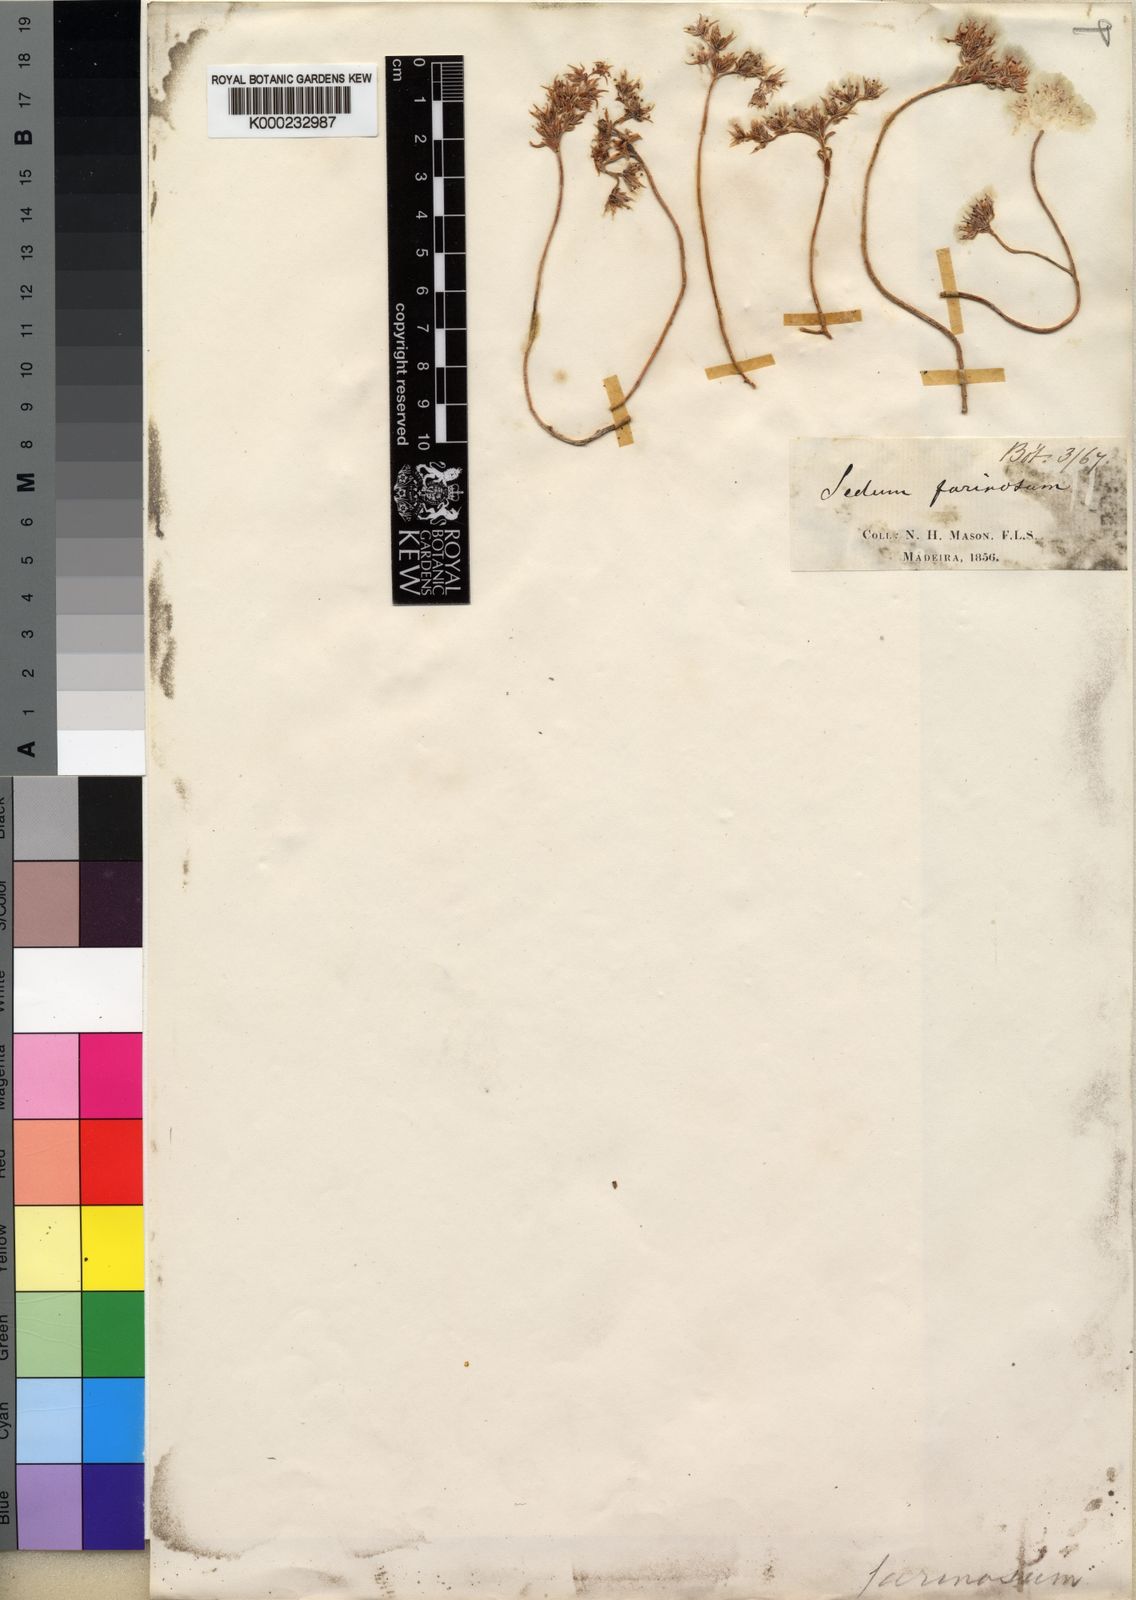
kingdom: Plantae
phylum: Tracheophyta
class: Magnoliopsida
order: Saxifragales
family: Crassulaceae
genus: Sedum
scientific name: Sedum farinosum
